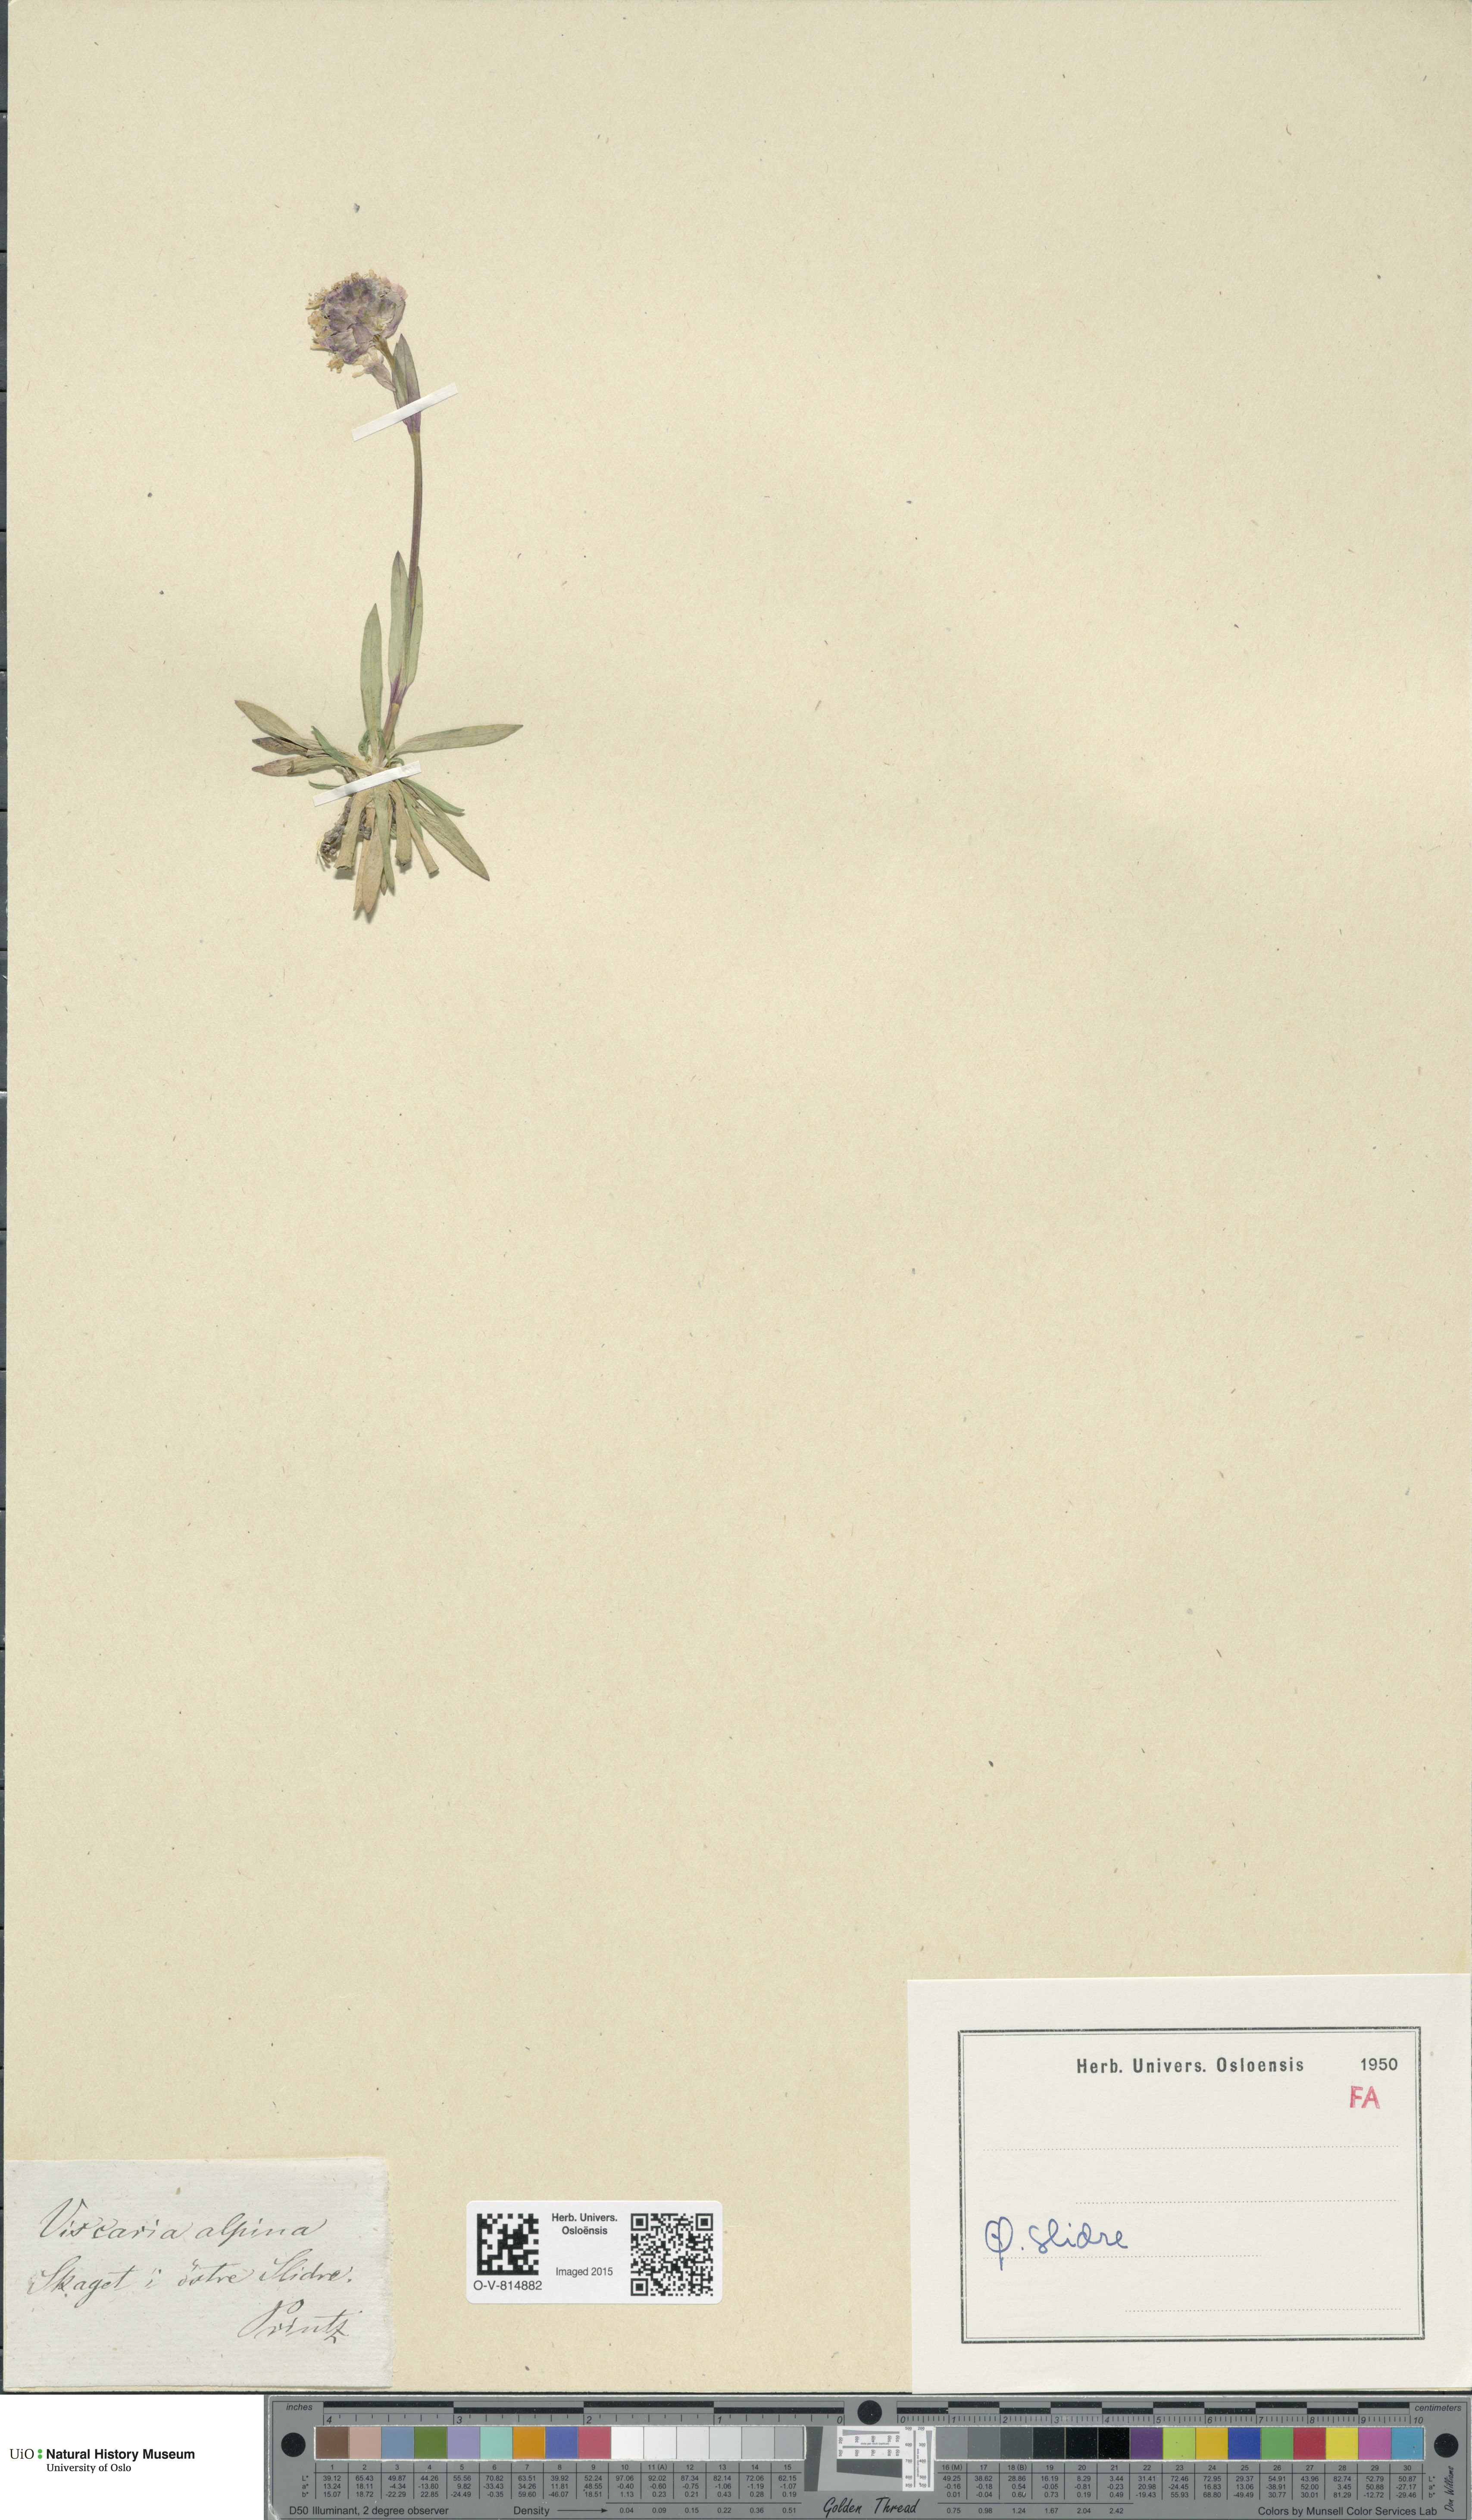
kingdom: Plantae
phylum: Tracheophyta
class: Magnoliopsida
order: Caryophyllales
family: Caryophyllaceae
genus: Viscaria
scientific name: Viscaria alpina
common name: Alpine campion
